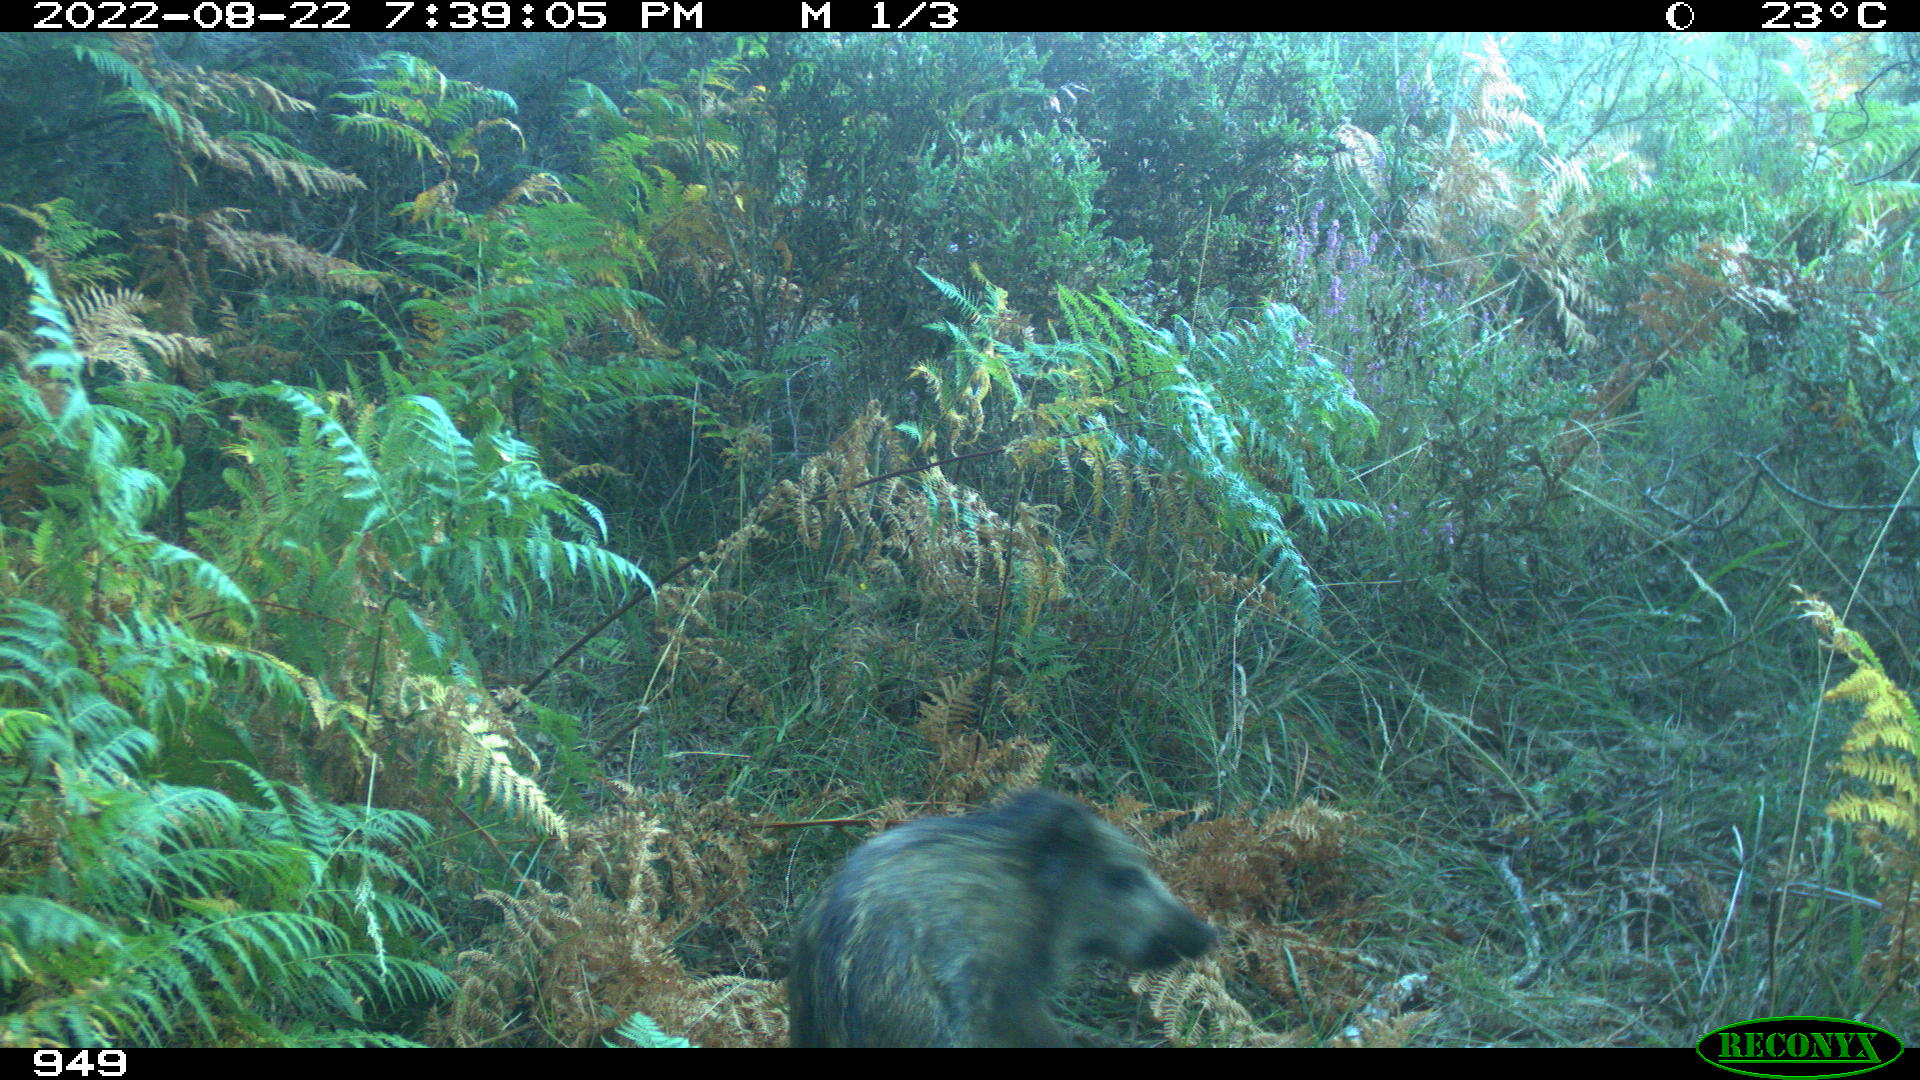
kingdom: Animalia
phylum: Chordata
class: Mammalia
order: Artiodactyla
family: Suidae
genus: Sus
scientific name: Sus scrofa
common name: Wild boar
